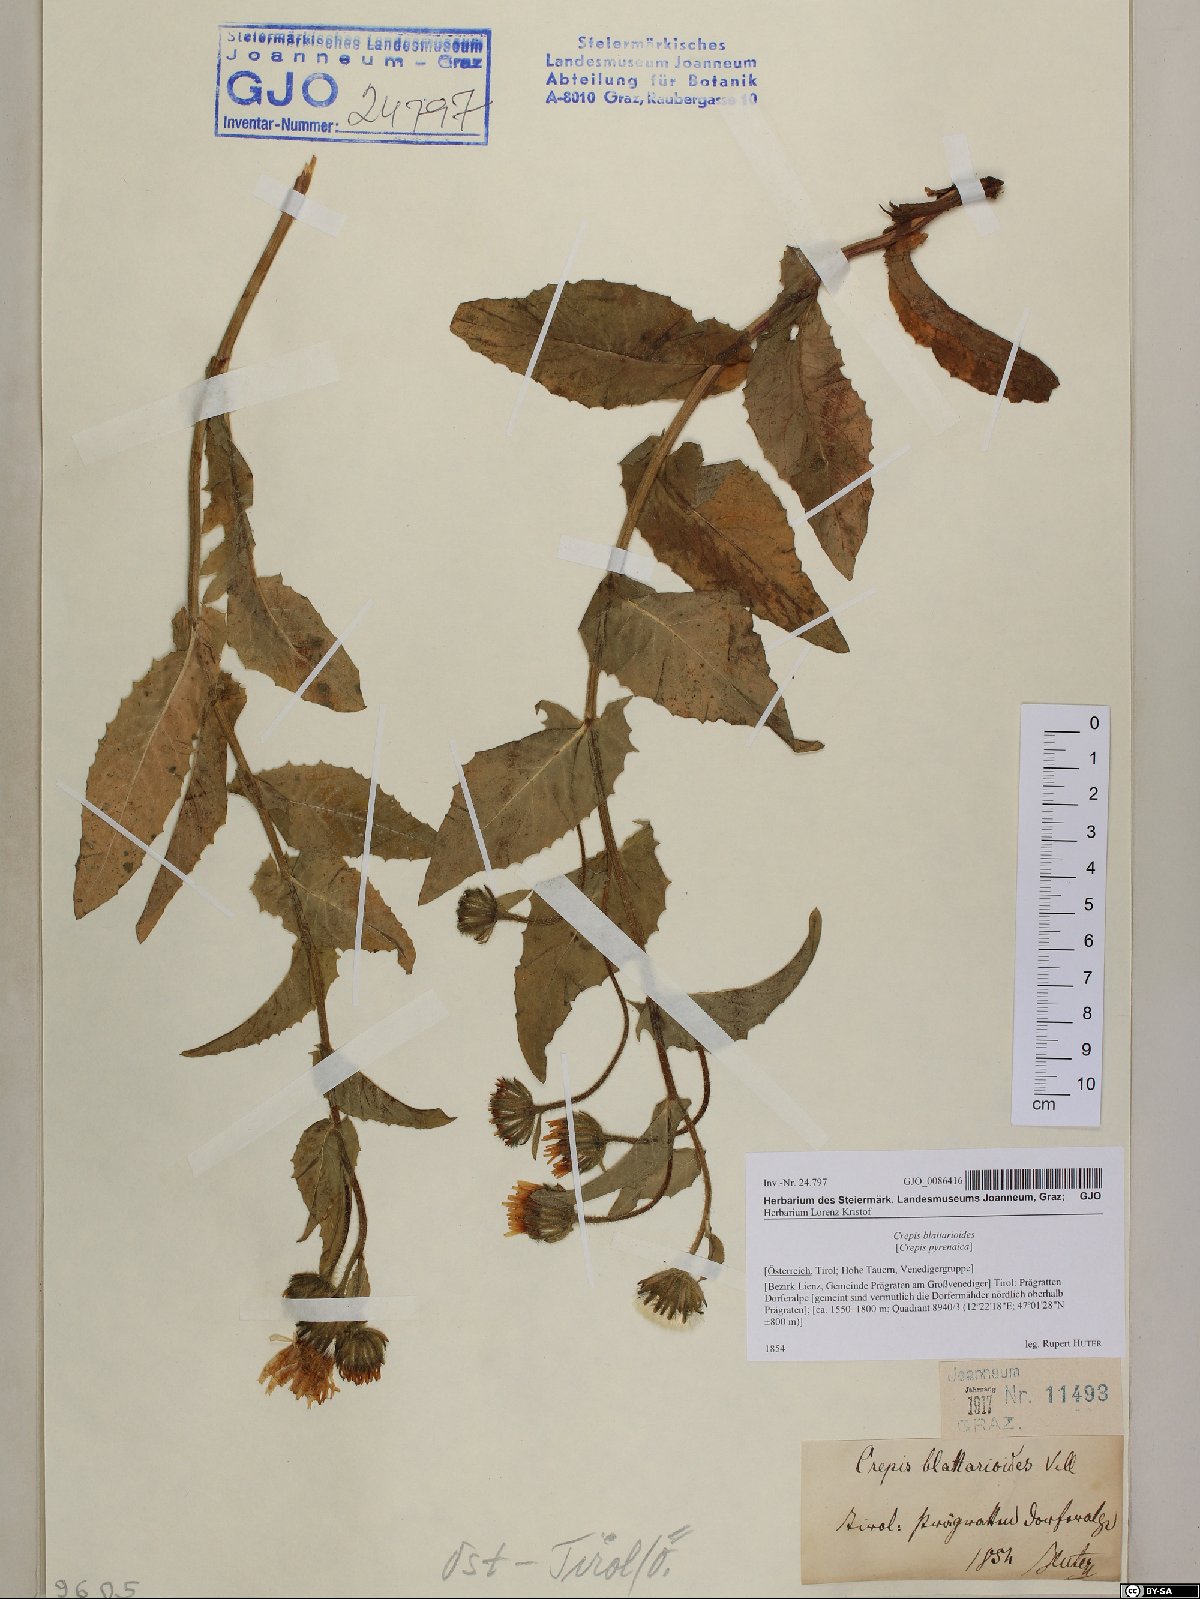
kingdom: Plantae
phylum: Tracheophyta
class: Magnoliopsida
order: Asterales
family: Asteraceae
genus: Crepis
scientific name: Crepis blattarioides
